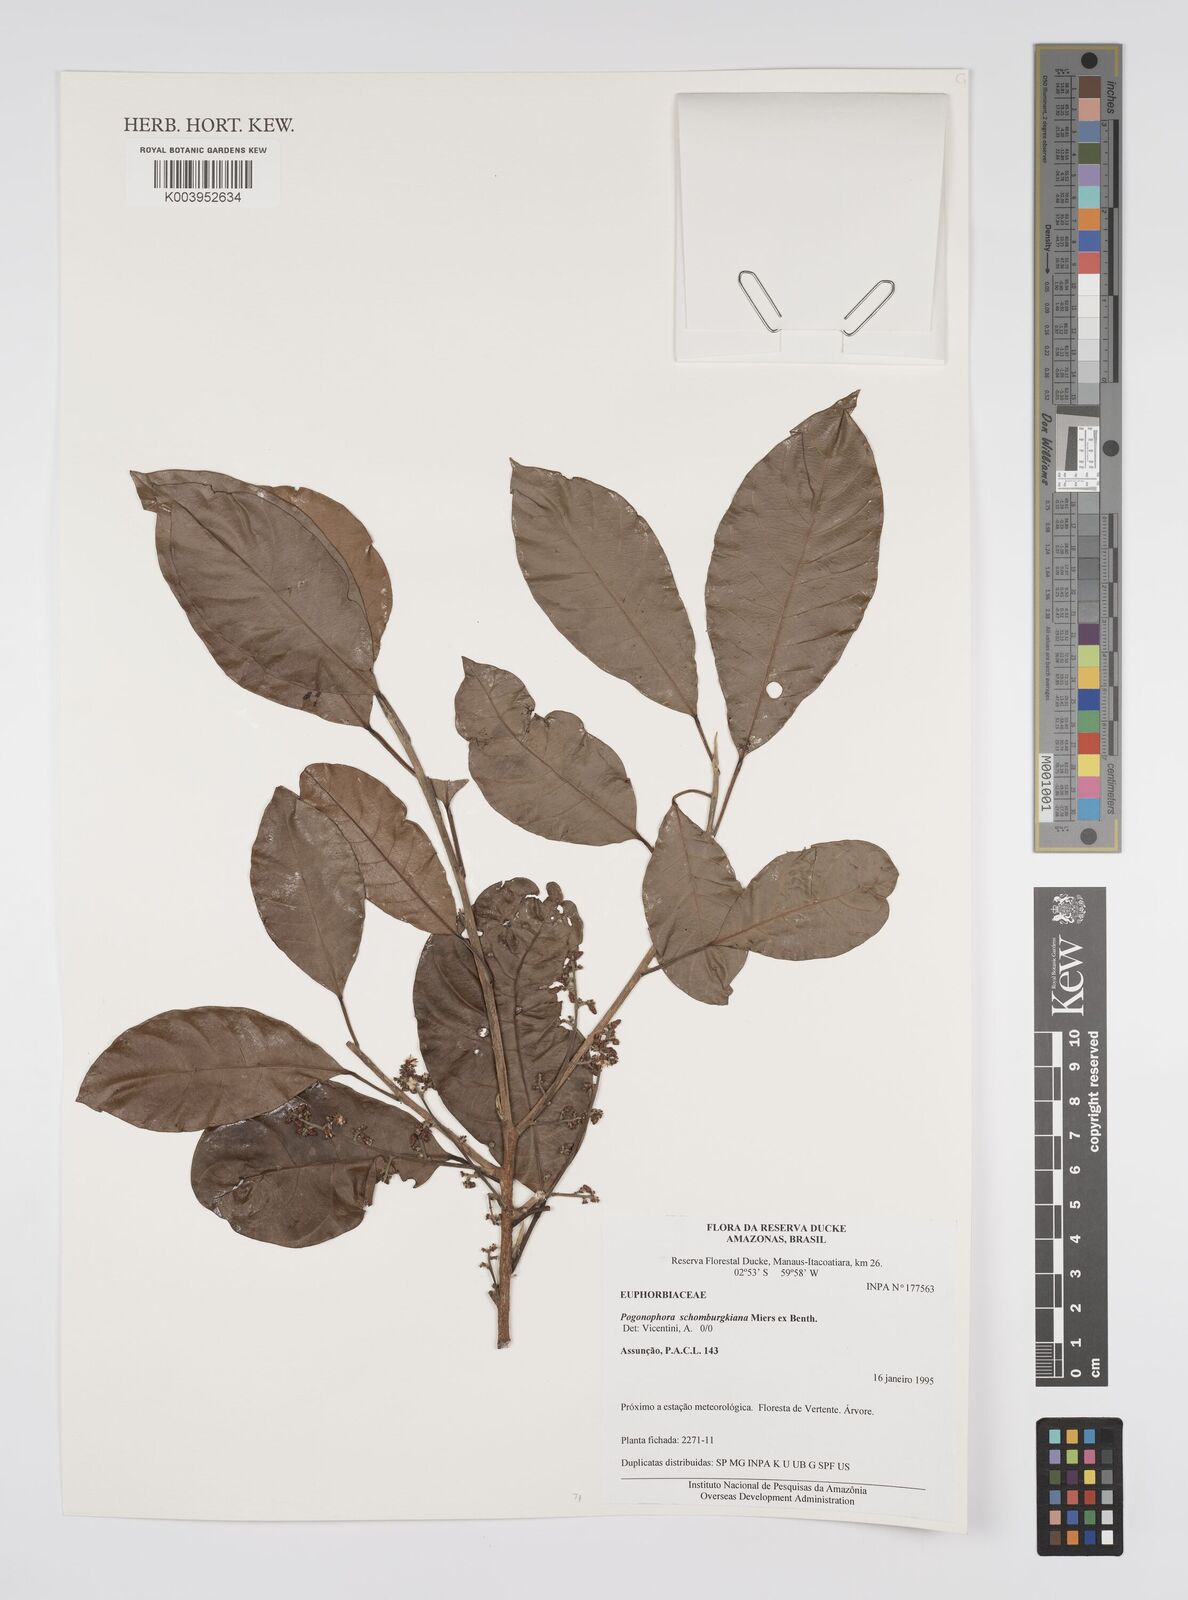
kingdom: Plantae
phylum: Tracheophyta
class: Magnoliopsida
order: Malpighiales
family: Peraceae
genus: Pogonophora
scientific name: Pogonophora schomburgkiana
